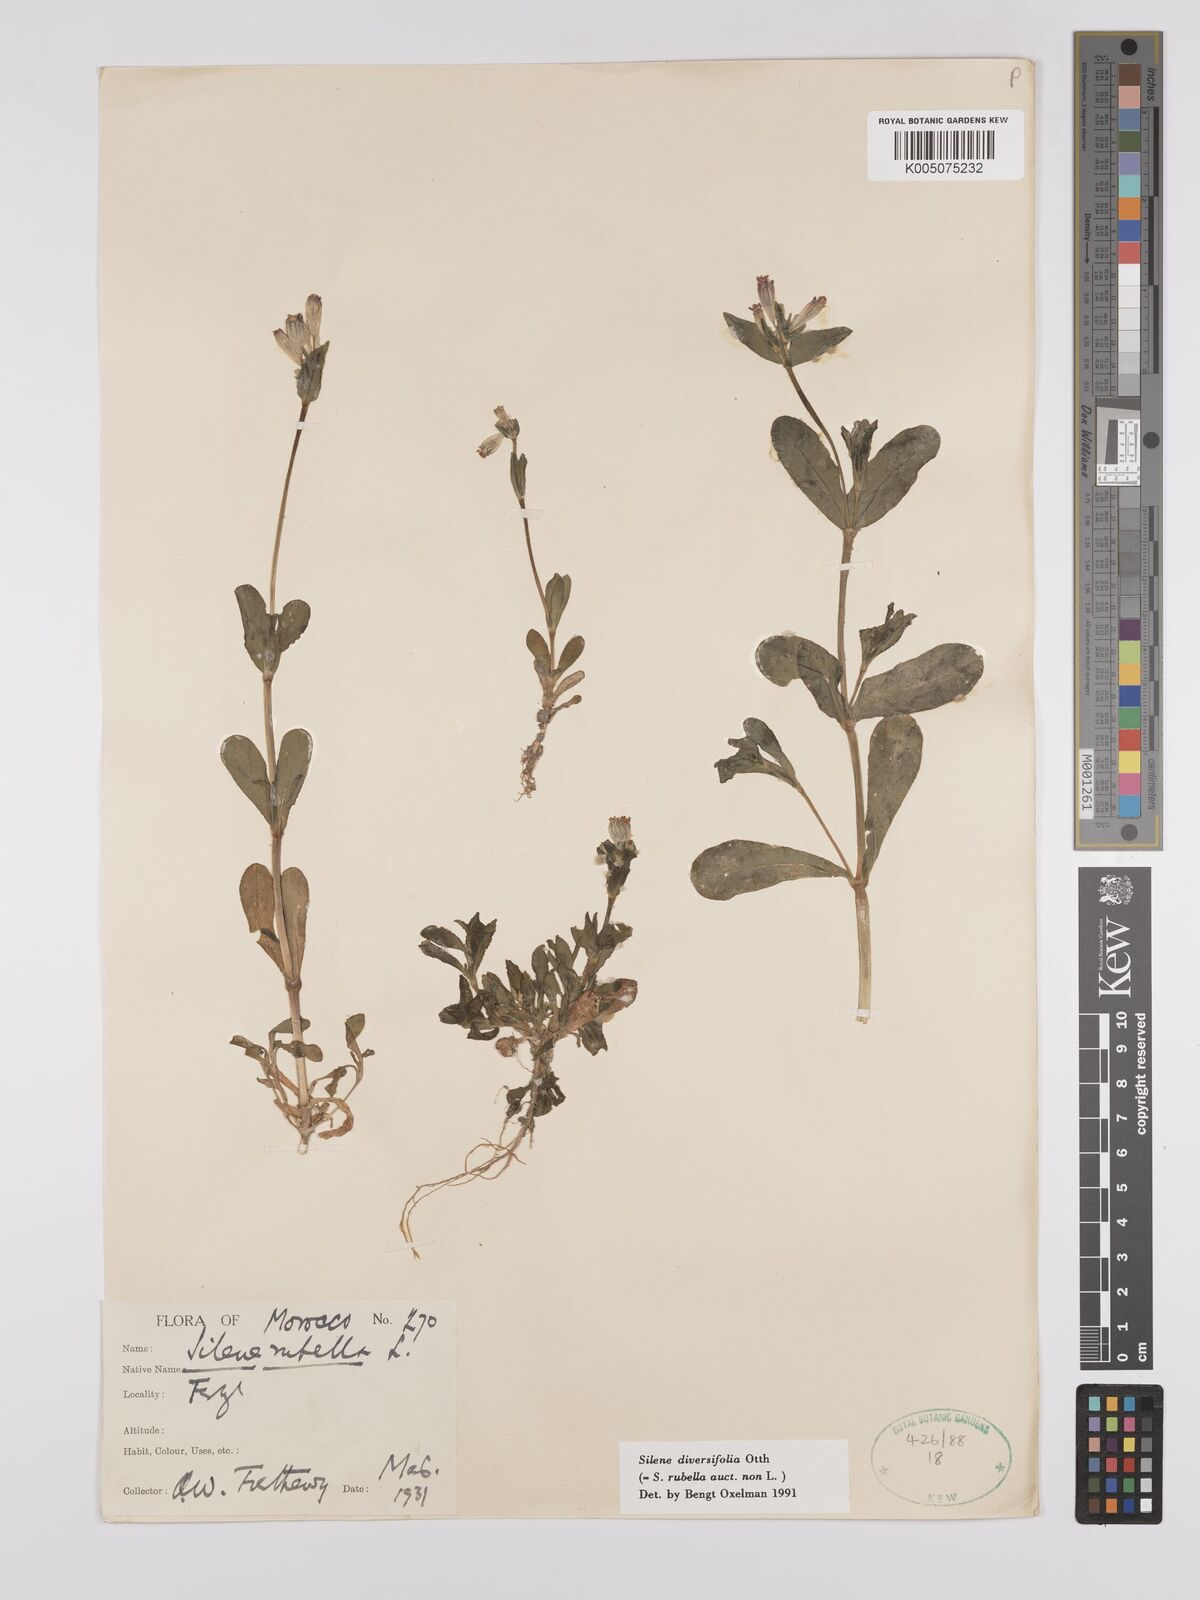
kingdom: Plantae
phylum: Tracheophyta
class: Magnoliopsida
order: Caryophyllales
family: Caryophyllaceae
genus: Silene
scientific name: Silene rubella
